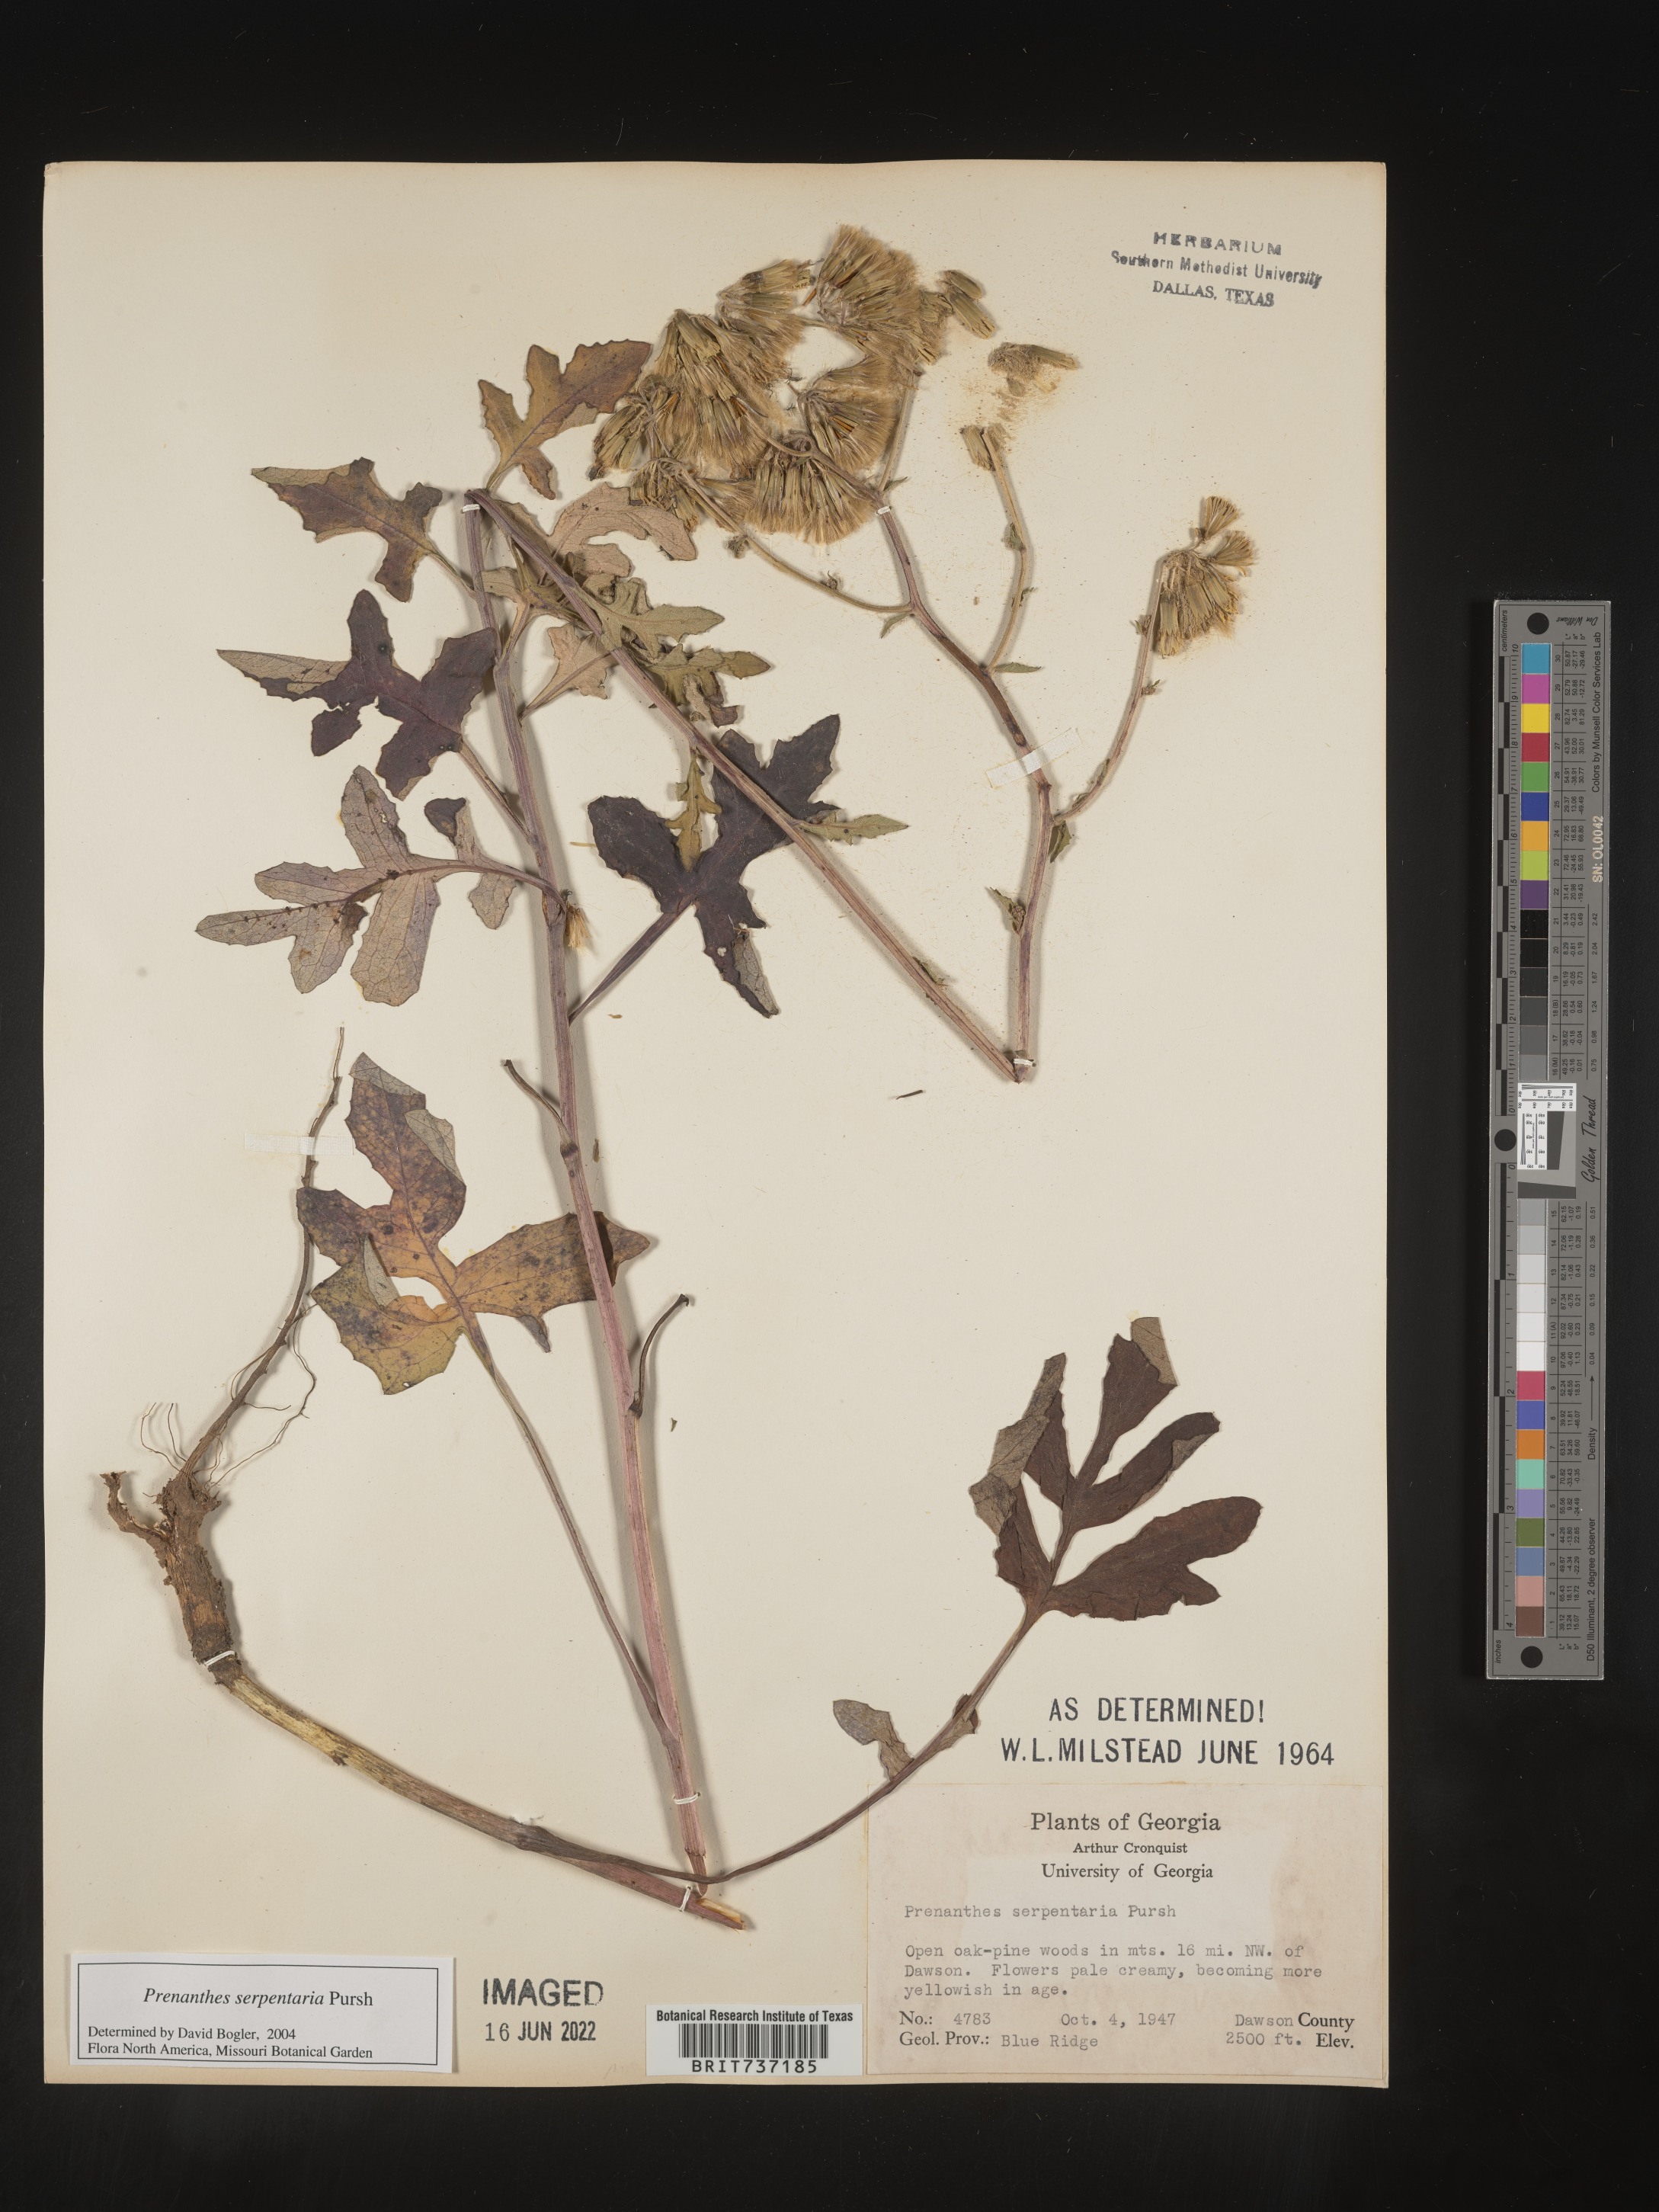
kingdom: Plantae
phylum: Tracheophyta
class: Magnoliopsida
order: Asterales
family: Asteraceae
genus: Nabalus
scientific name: Nabalus serpentarius
